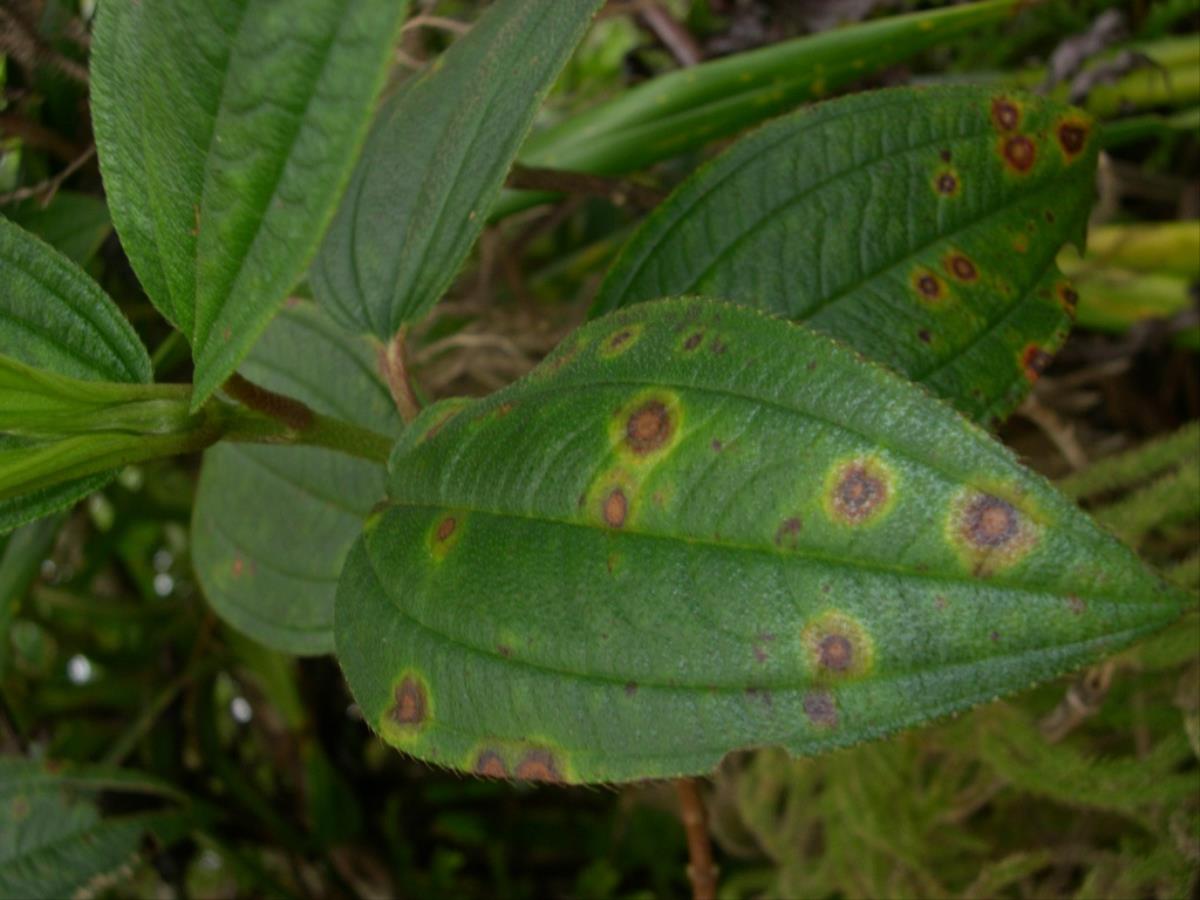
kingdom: Fungi
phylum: Ascomycota
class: Dothideomycetes
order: Mycosphaerellales
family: Mycosphaerellaceae
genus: Pseudocercospora
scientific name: Pseudocercospora melastomobia
